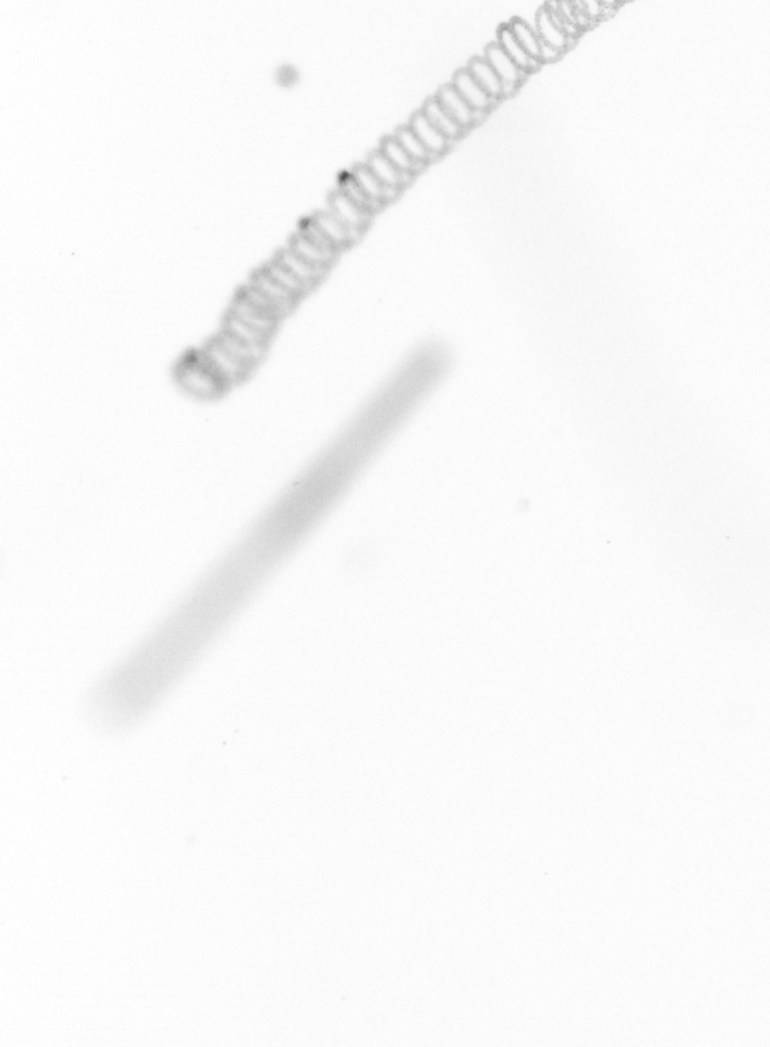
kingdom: Chromista
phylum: Ochrophyta
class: Bacillariophyceae
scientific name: Bacillariophyceae
